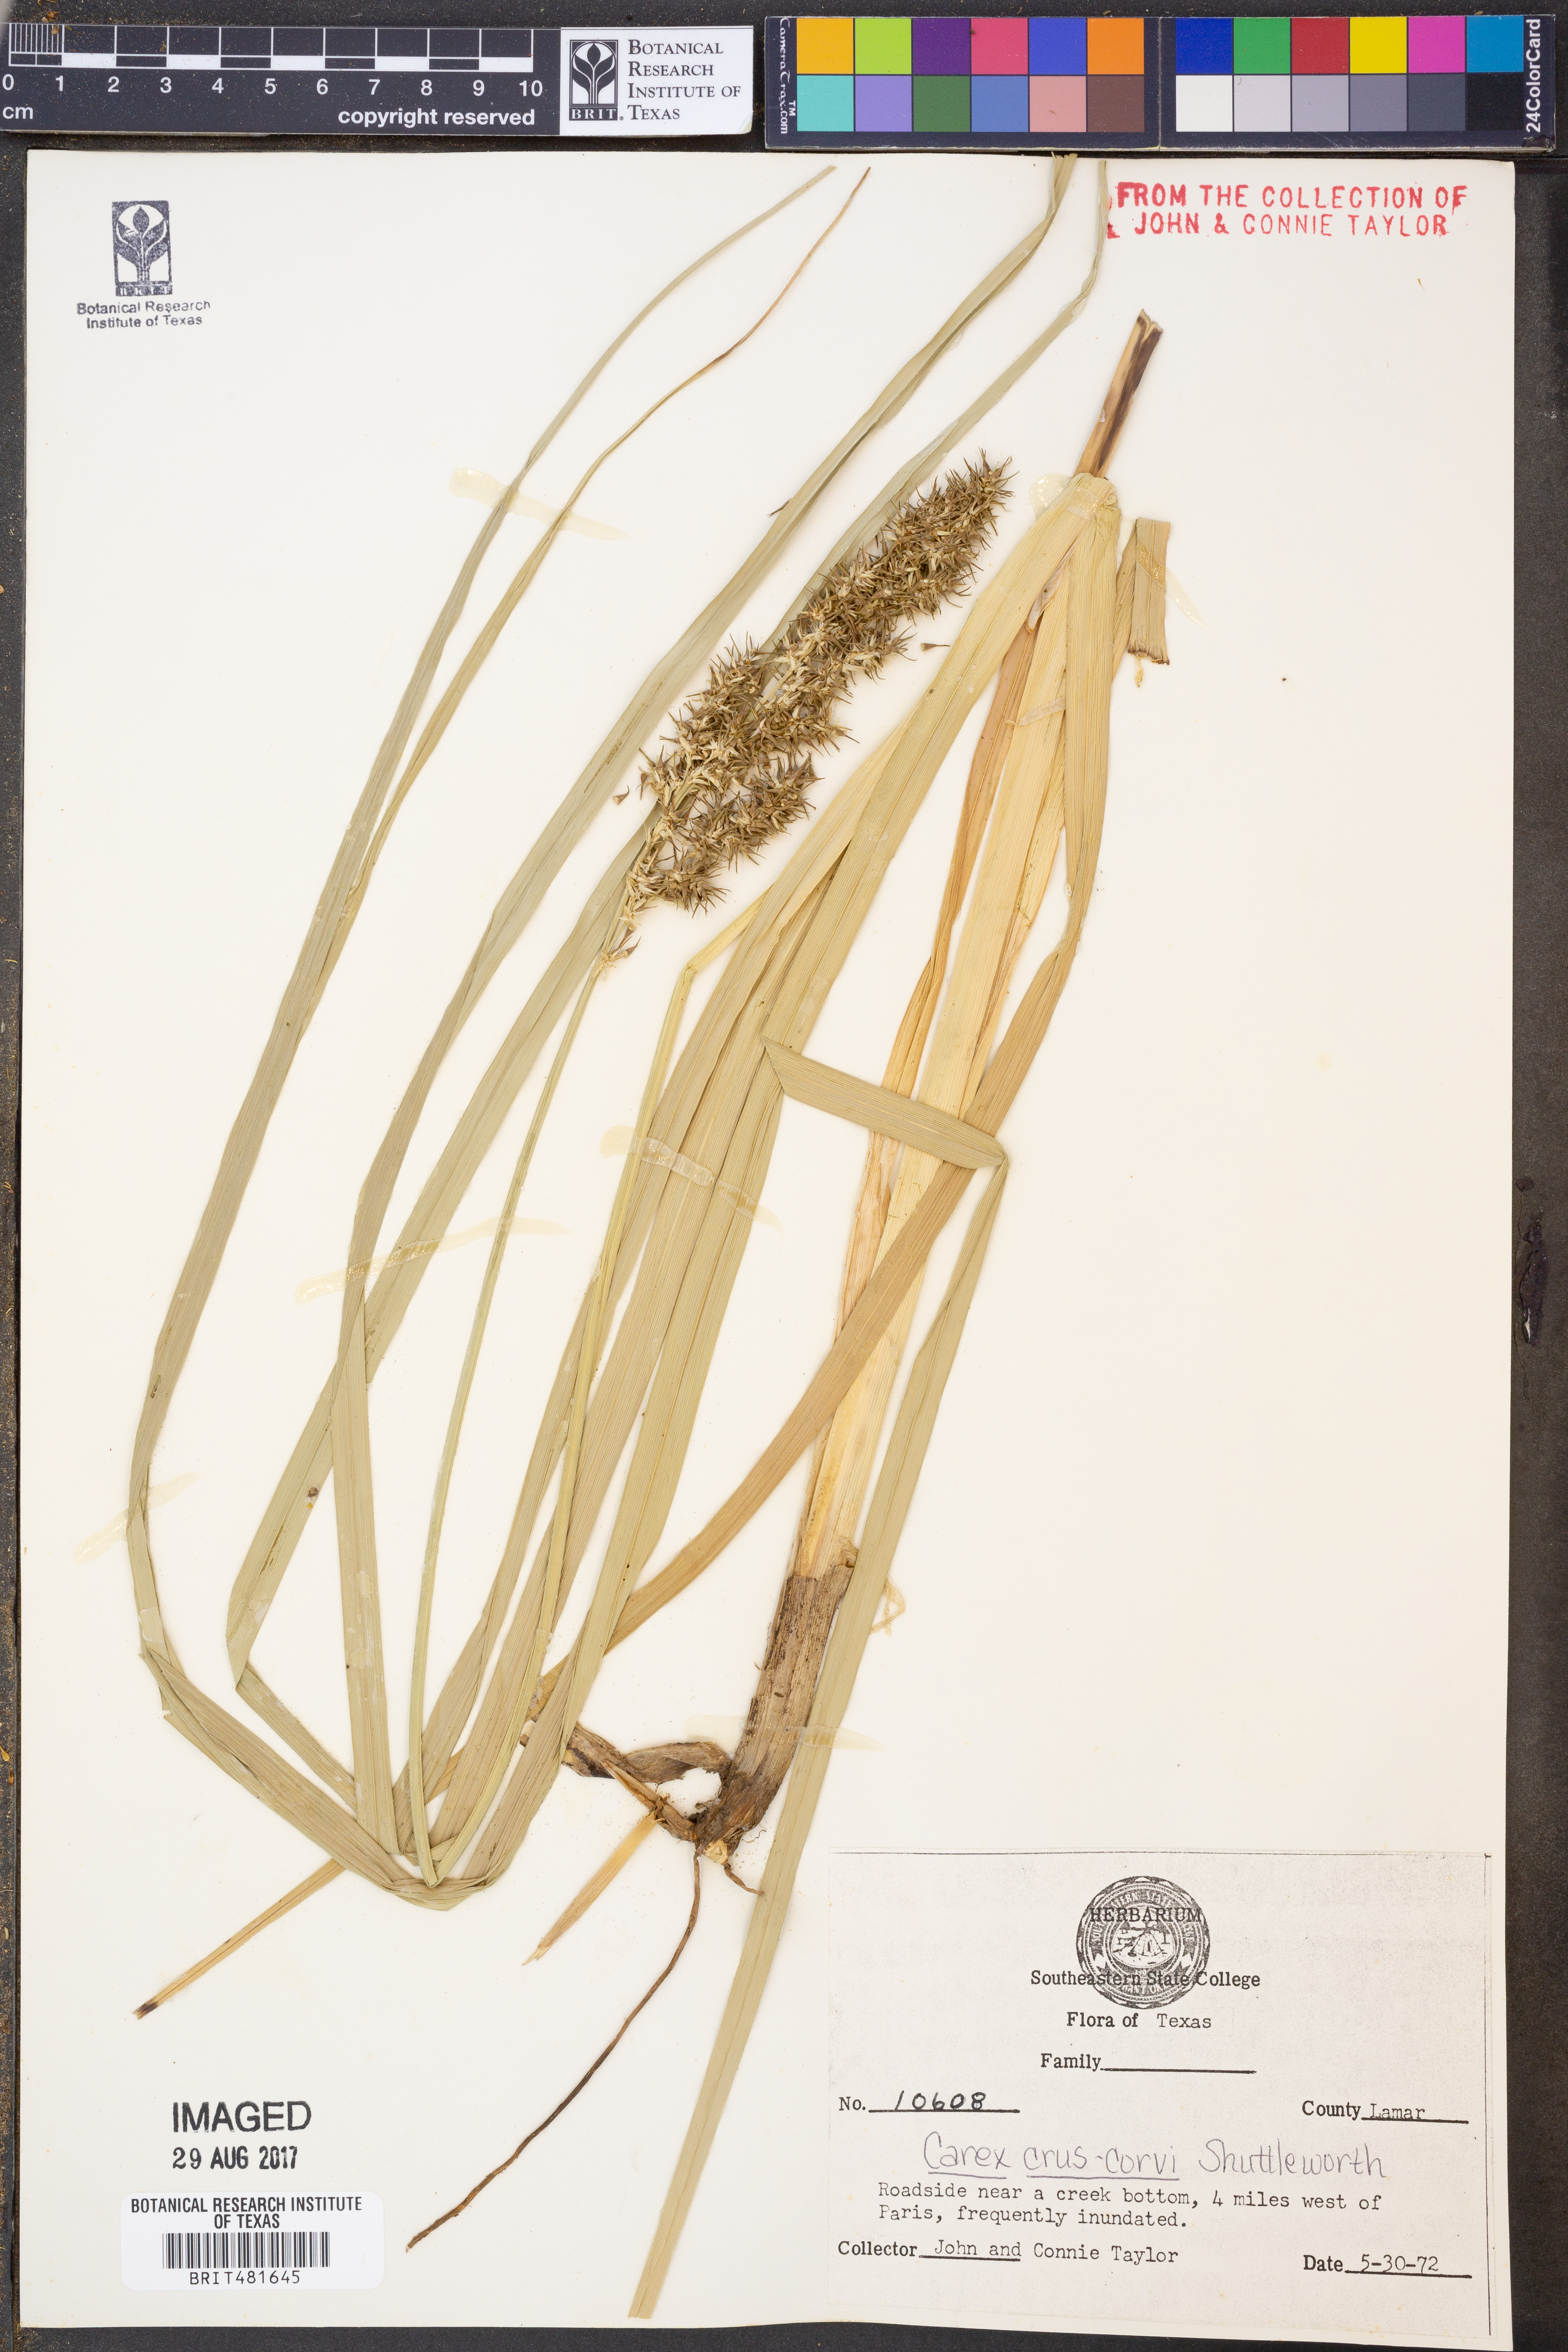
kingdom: Plantae
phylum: Tracheophyta
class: Liliopsida
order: Poales
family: Cyperaceae
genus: Carex
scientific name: Carex crus-corvi
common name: Crow-spur sedge
